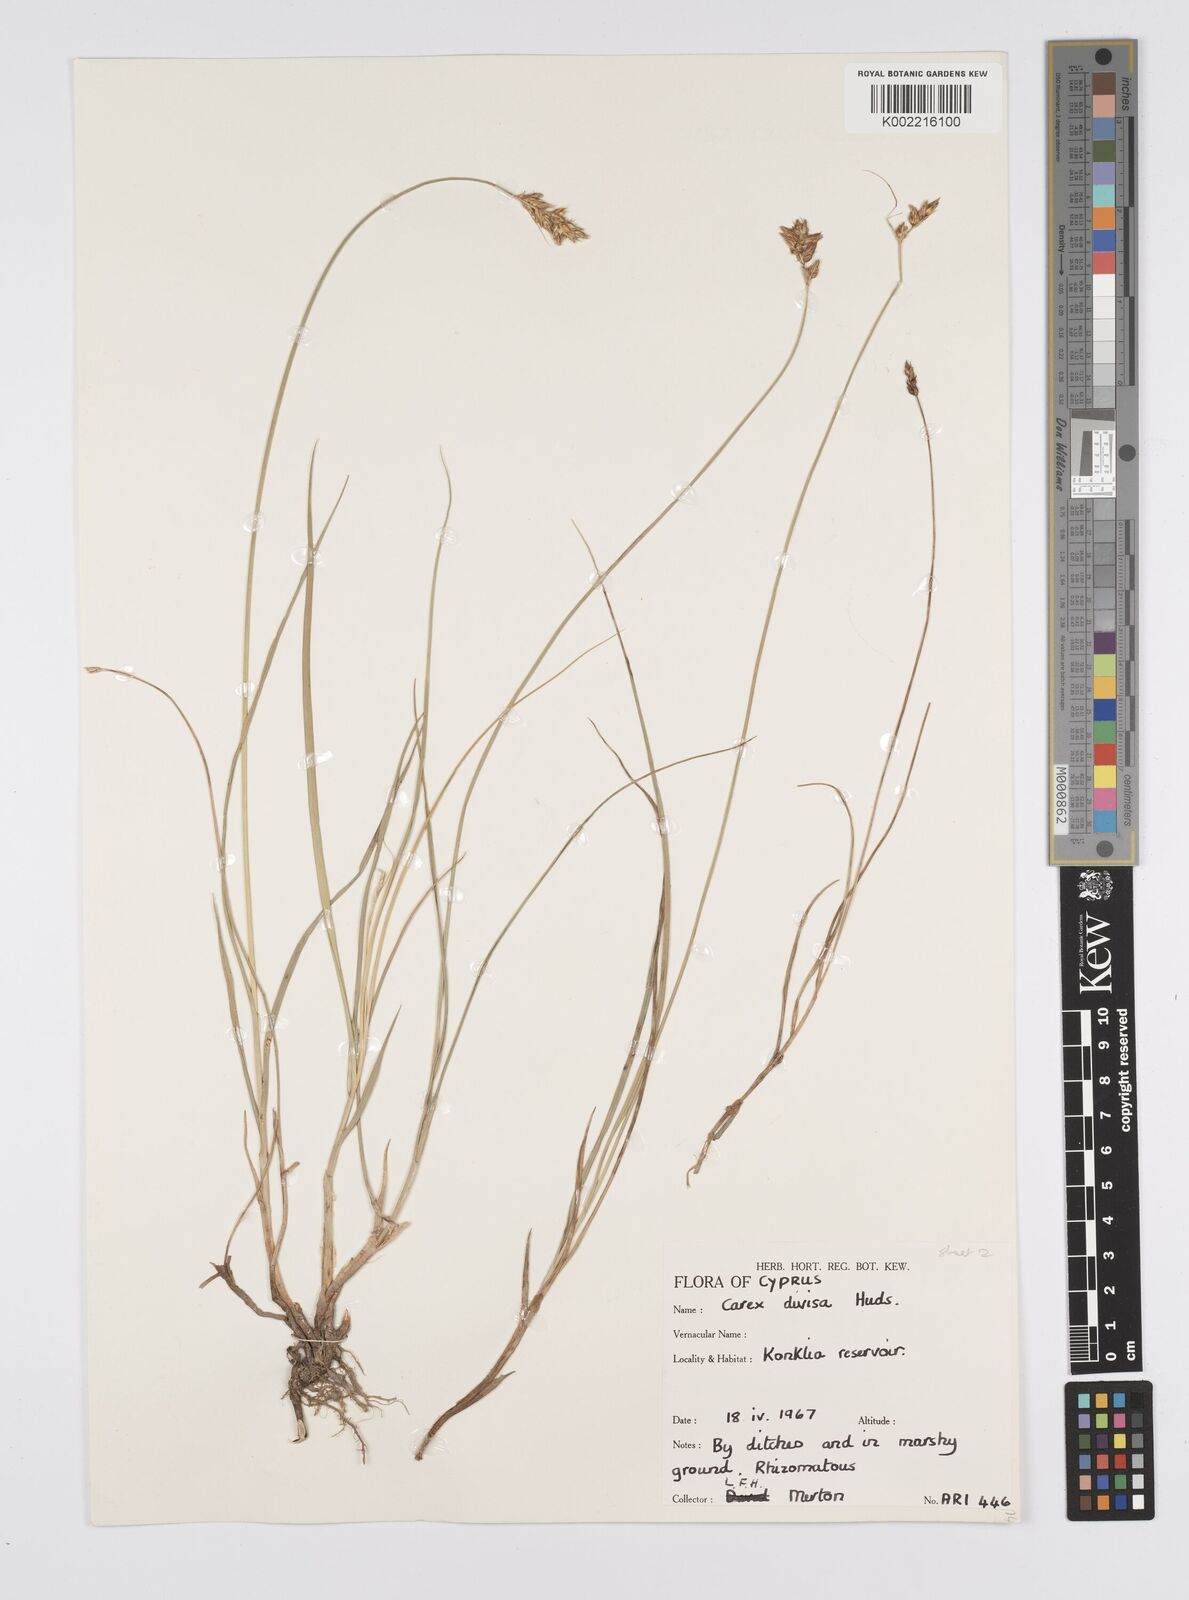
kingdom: Plantae
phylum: Tracheophyta
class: Liliopsida
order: Poales
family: Cyperaceae
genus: Carex
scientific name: Carex divisa
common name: Divided sedge
